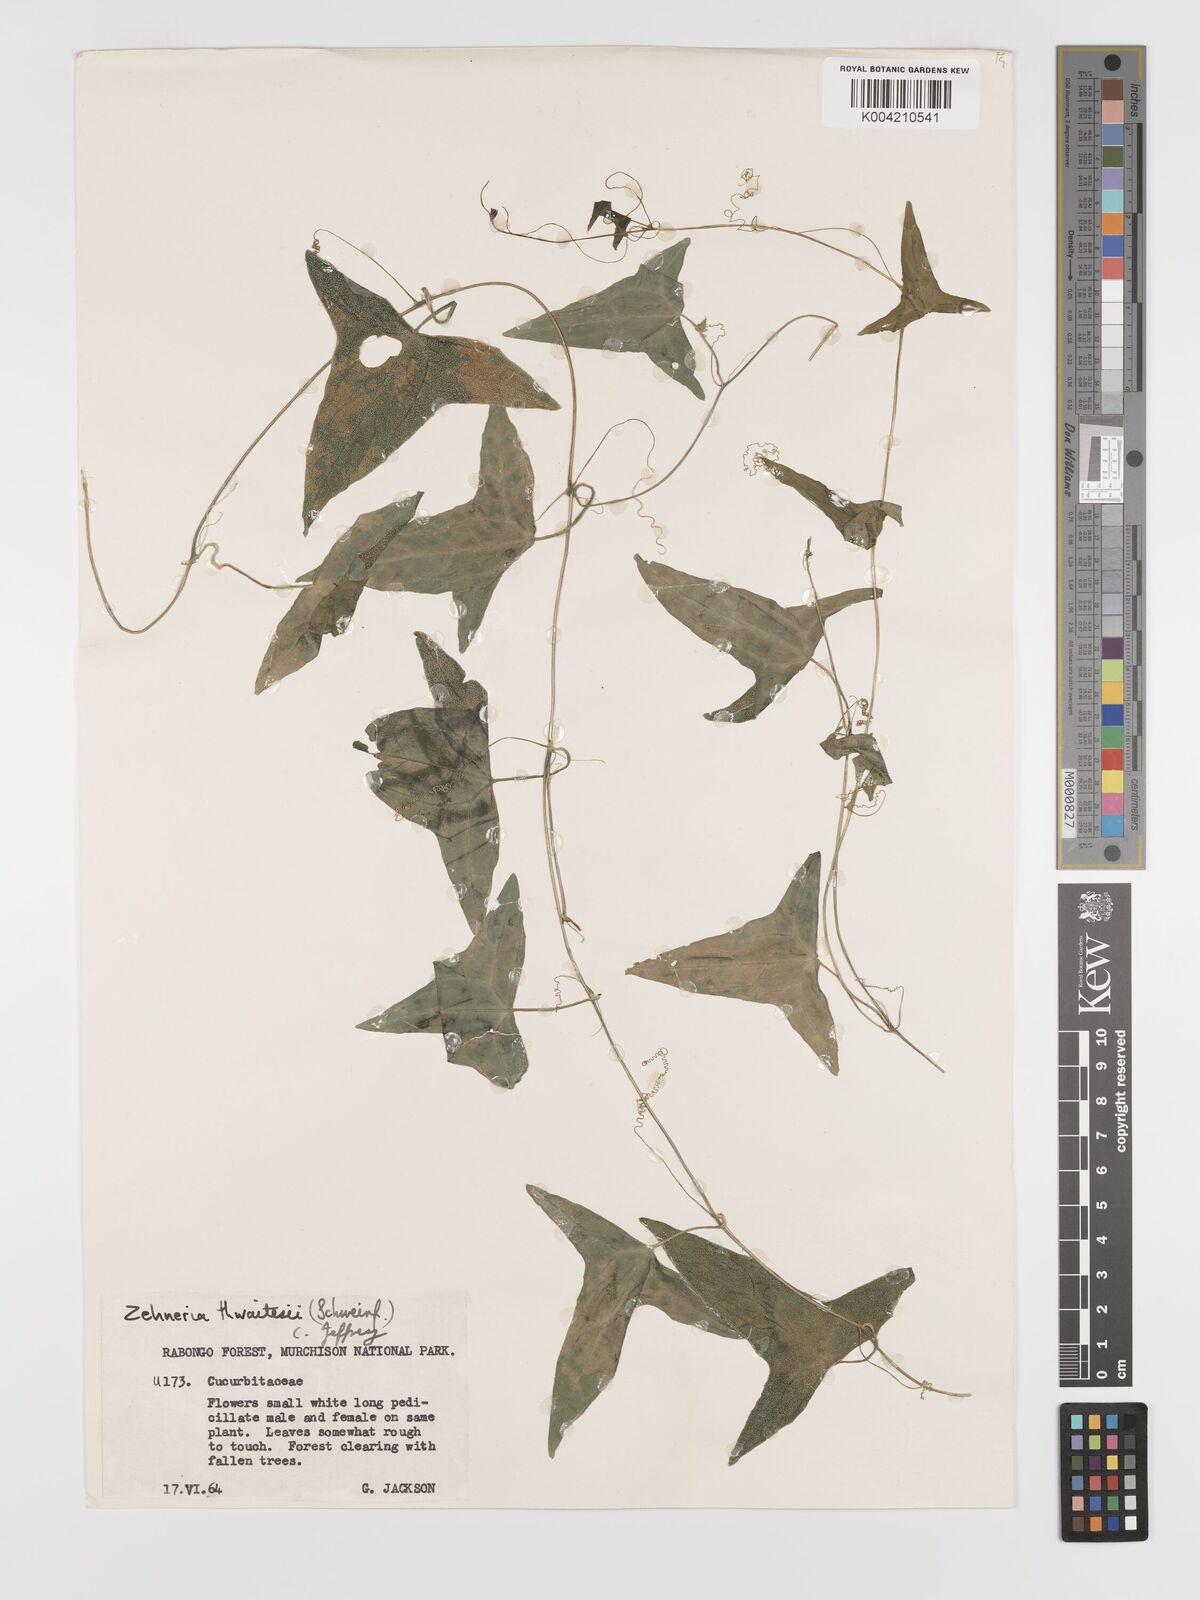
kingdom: Plantae
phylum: Tracheophyta
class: Magnoliopsida
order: Cucurbitales
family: Cucurbitaceae
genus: Zehneria
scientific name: Zehneria thwaitesii
